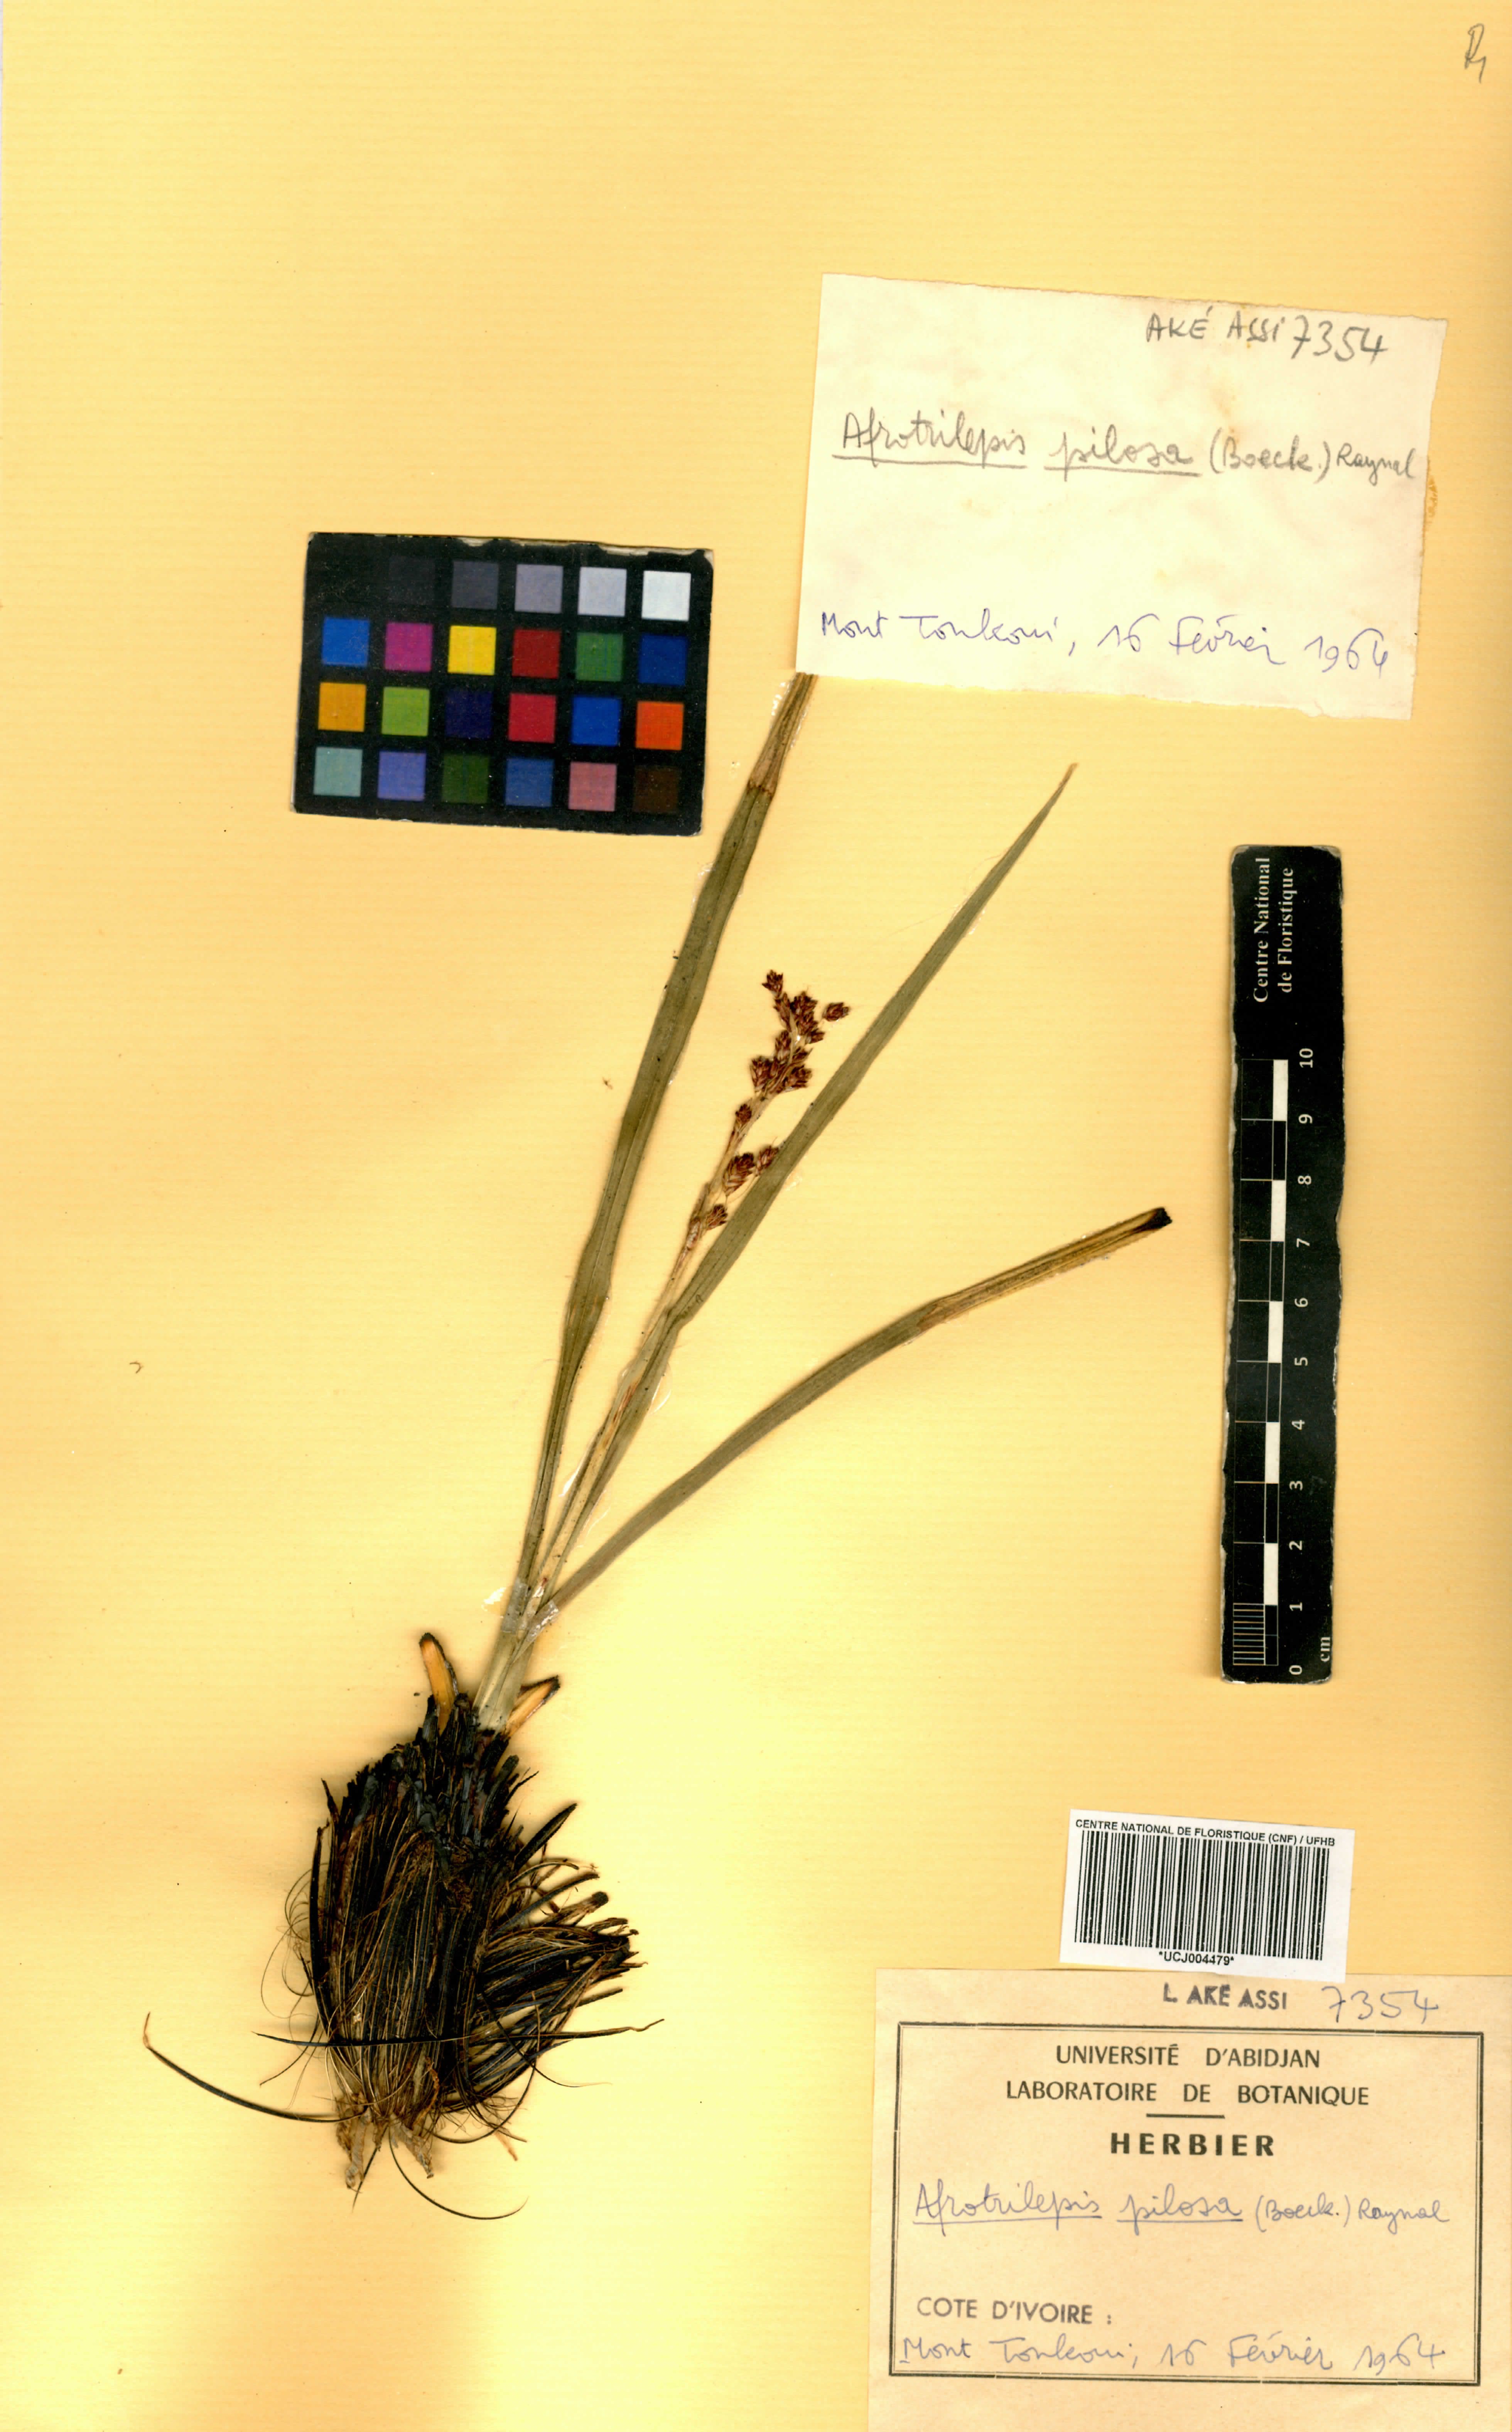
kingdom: Plantae
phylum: Tracheophyta
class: Liliopsida
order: Poales
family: Cyperaceae
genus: Afrotrilepis
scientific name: Afrotrilepis pilosa
